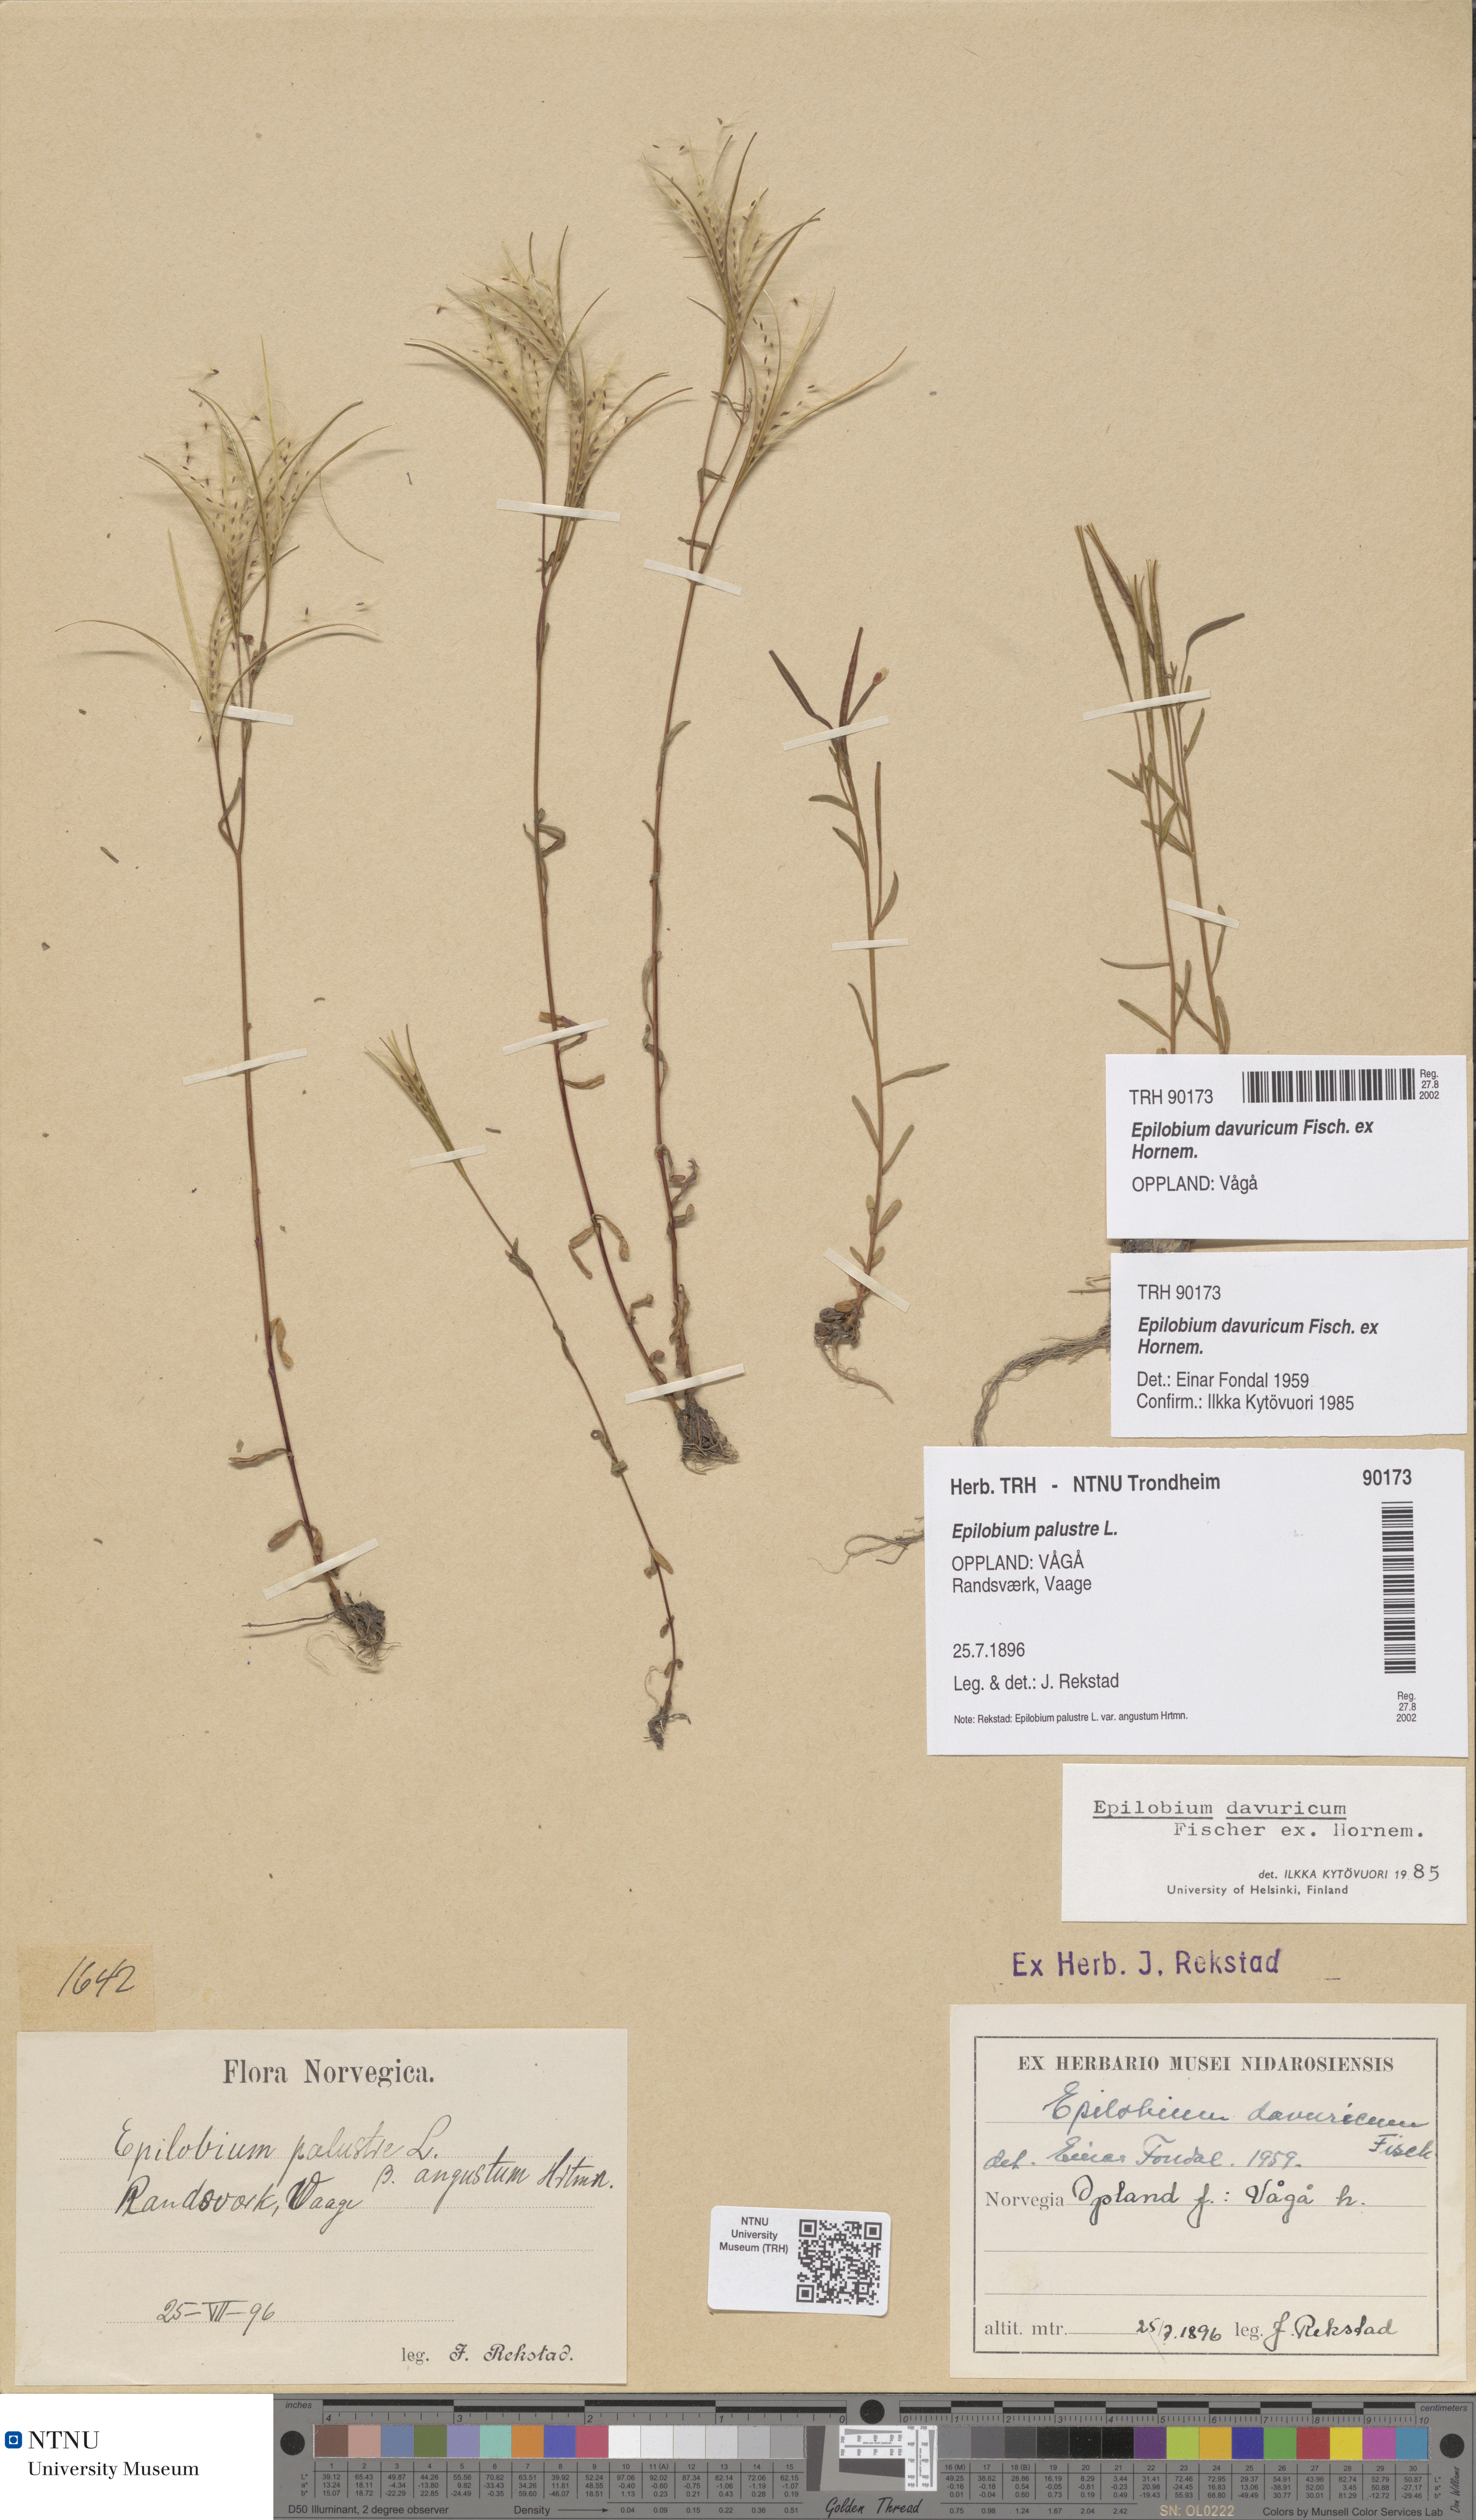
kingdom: Plantae
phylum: Tracheophyta
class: Magnoliopsida
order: Myrtales
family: Onagraceae
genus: Epilobium
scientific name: Epilobium davuricum
